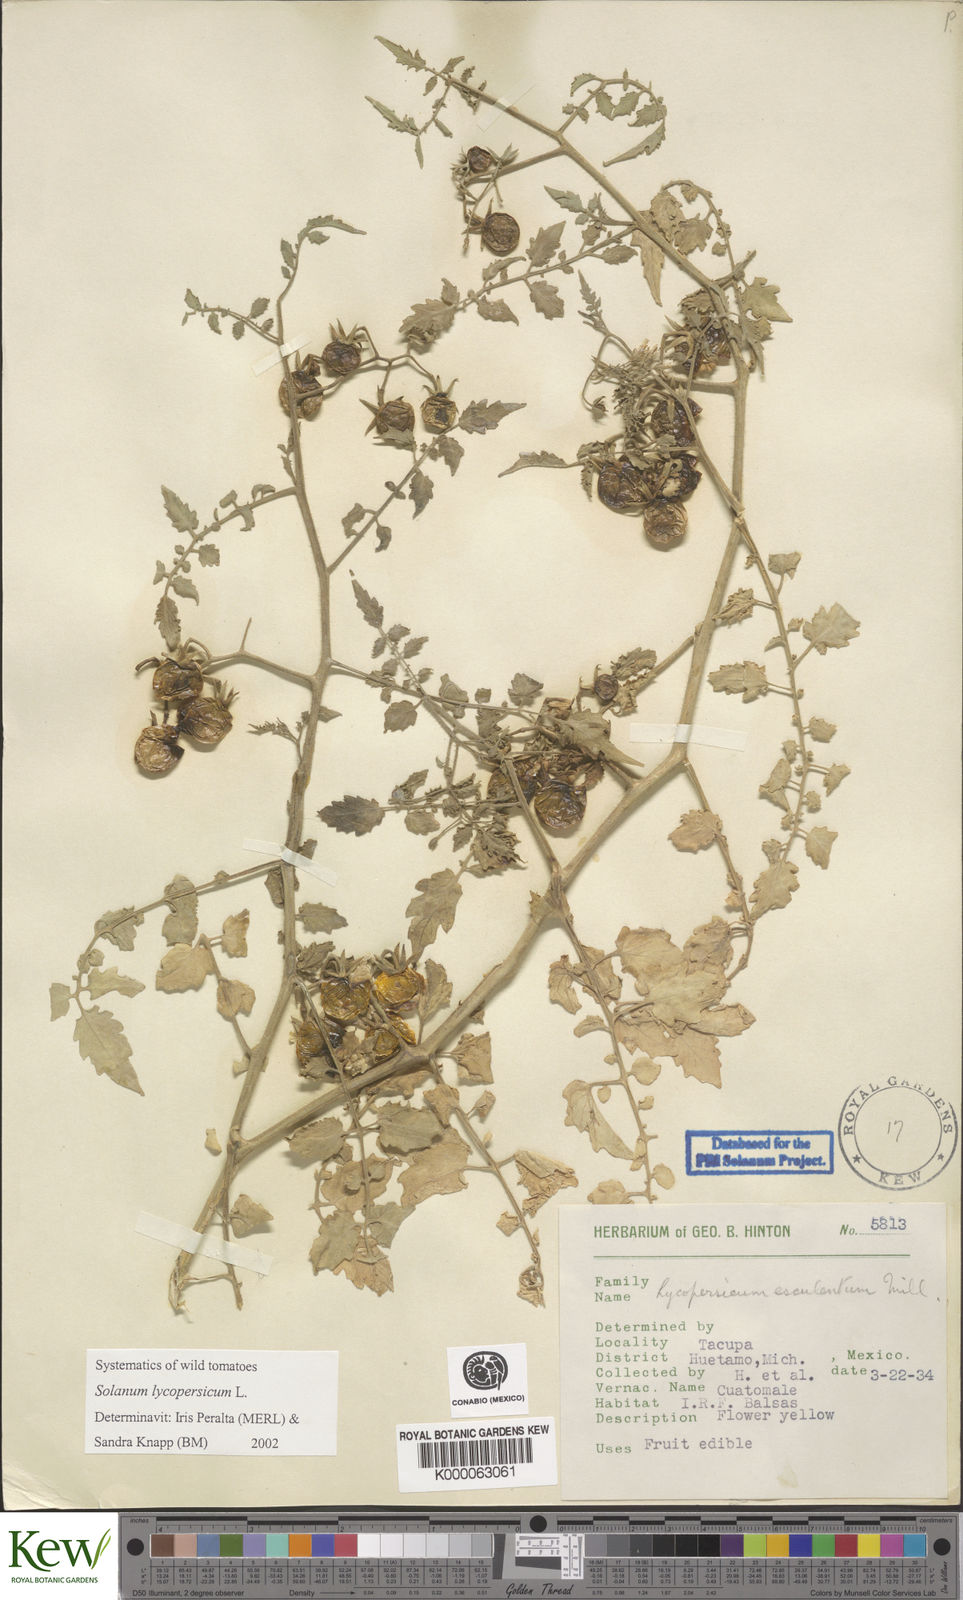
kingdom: Plantae
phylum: Tracheophyta
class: Magnoliopsida
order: Solanales
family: Solanaceae
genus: Lycopersicon
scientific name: Lycopersicon
